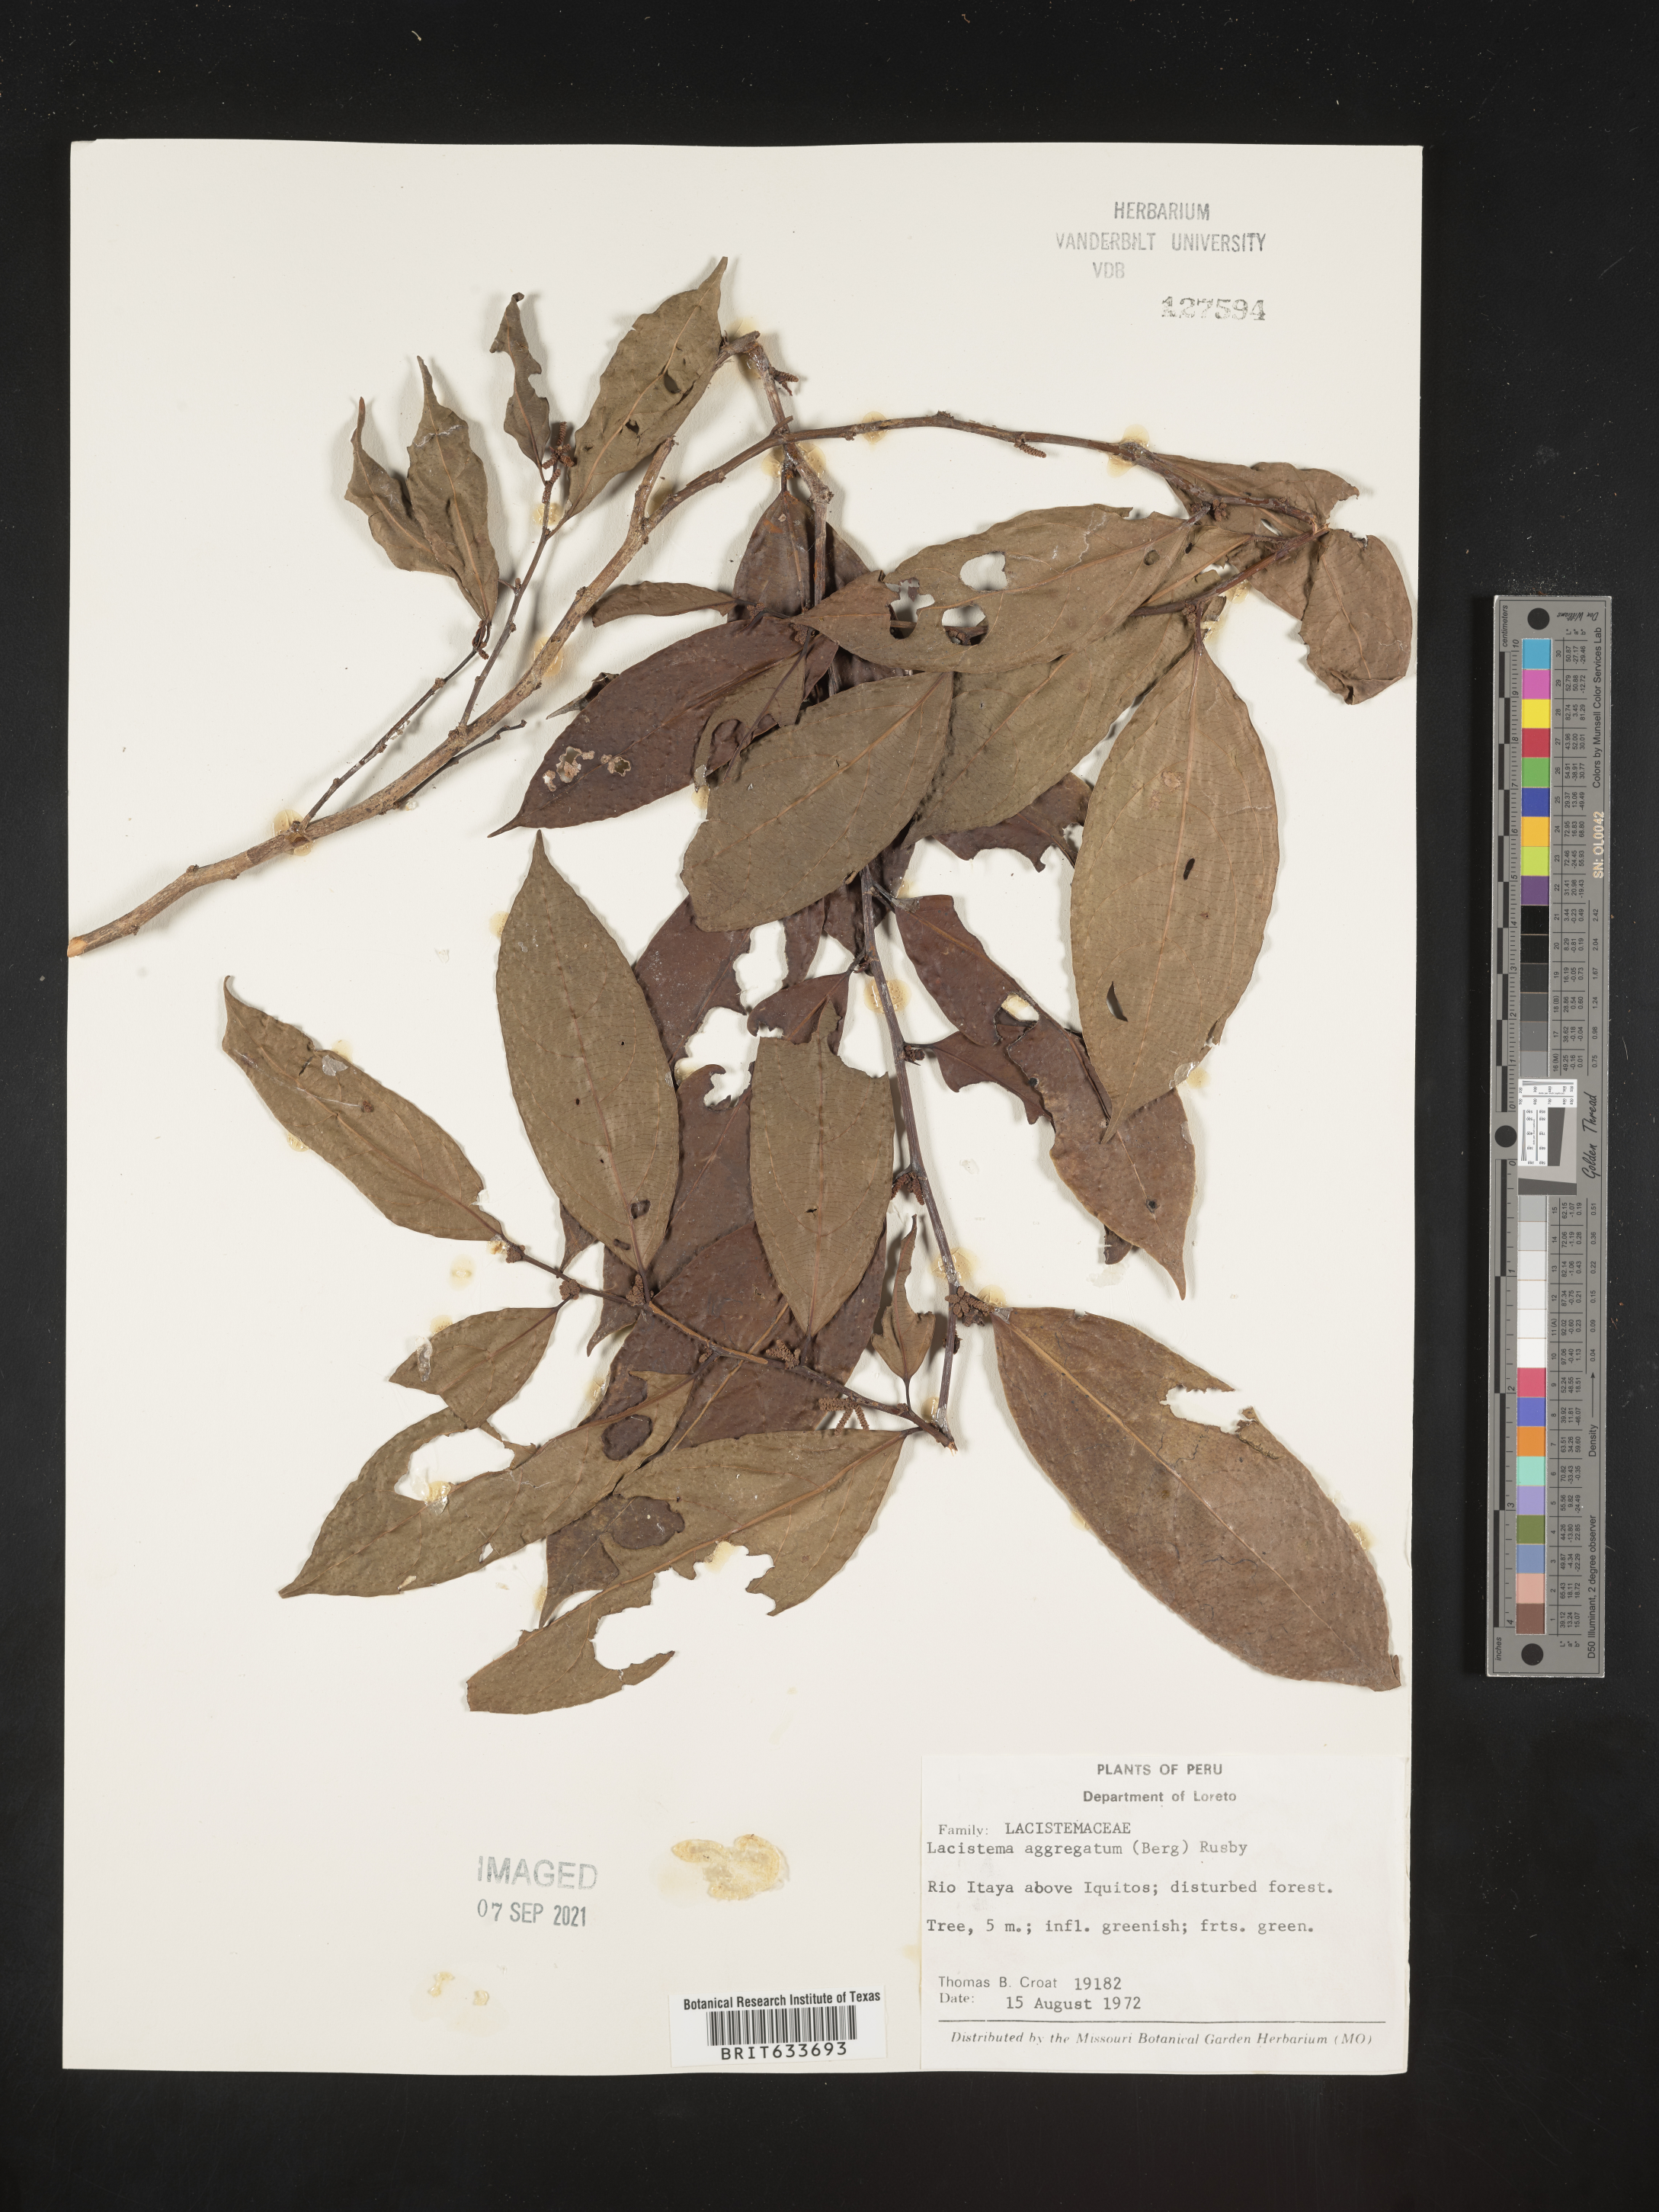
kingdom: Plantae
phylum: Tracheophyta
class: Magnoliopsida
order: Malpighiales
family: Lacistemataceae
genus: Lacistema
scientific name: Lacistema
